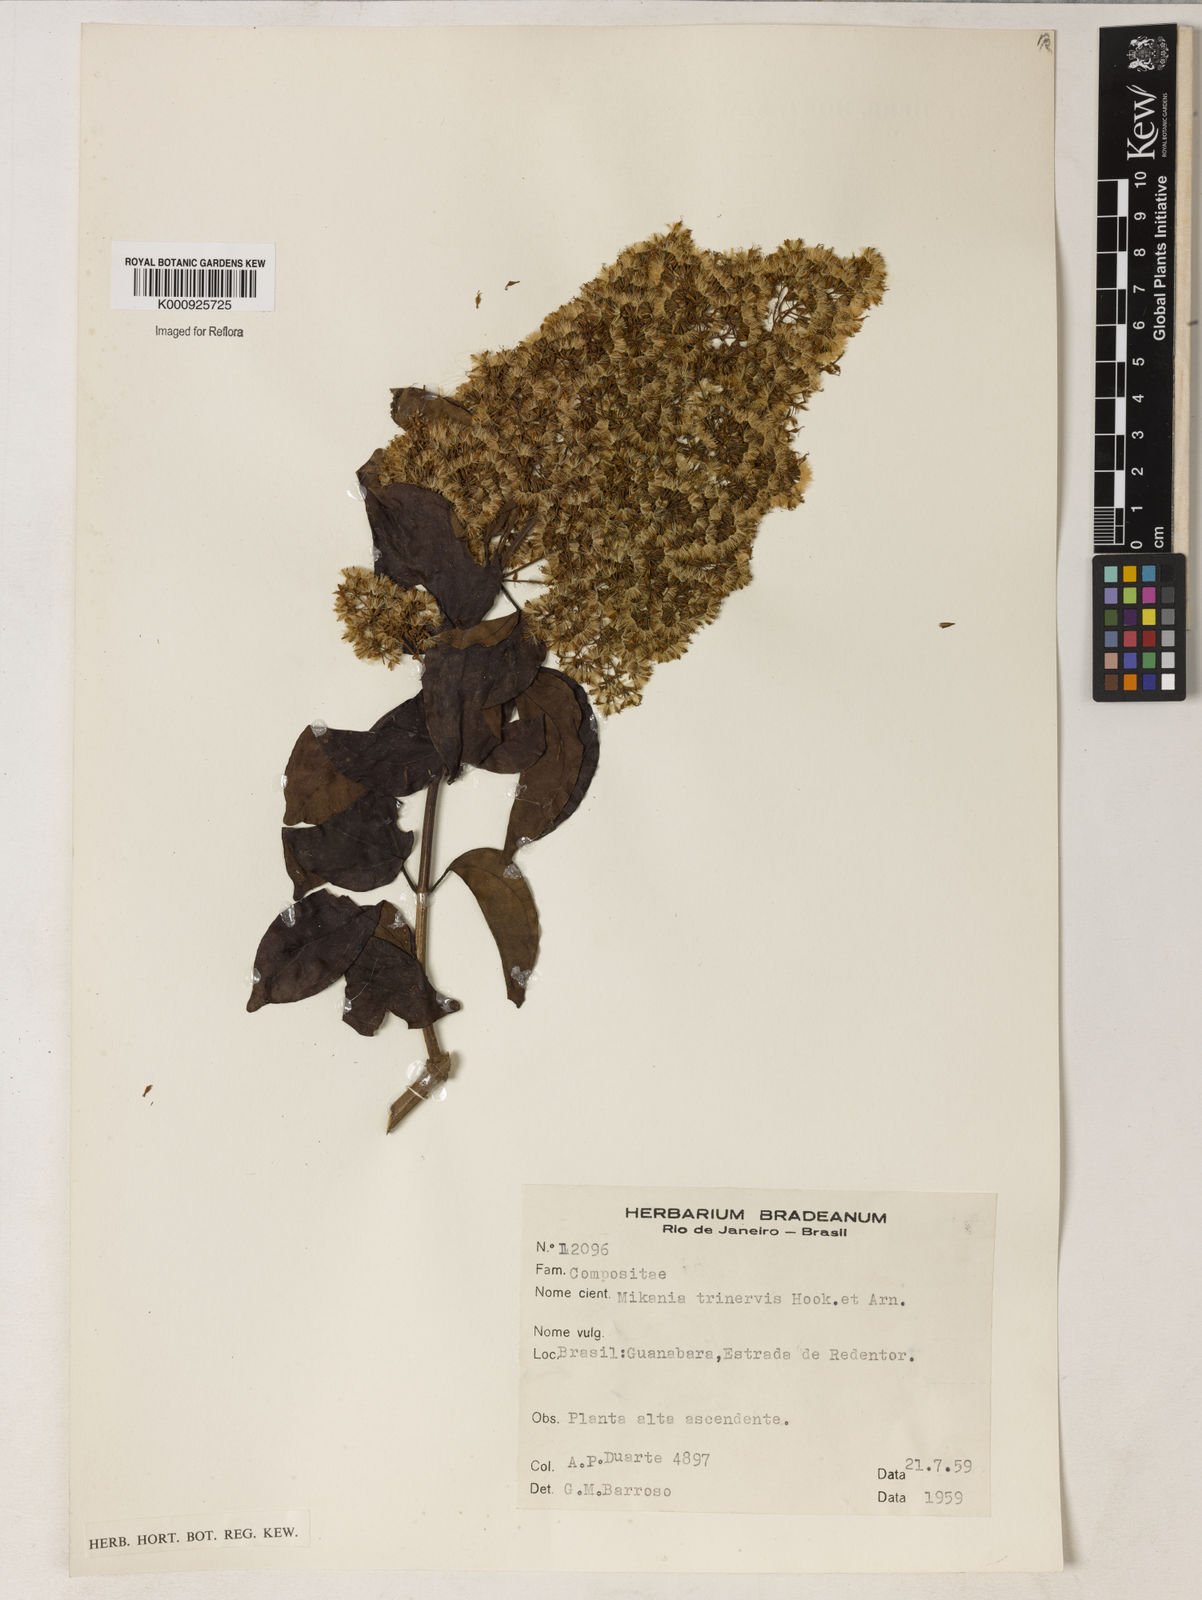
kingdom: Plantae
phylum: Tracheophyta
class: Magnoliopsida
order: Asterales
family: Asteraceae
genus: Mikania
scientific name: Mikania trinervis
